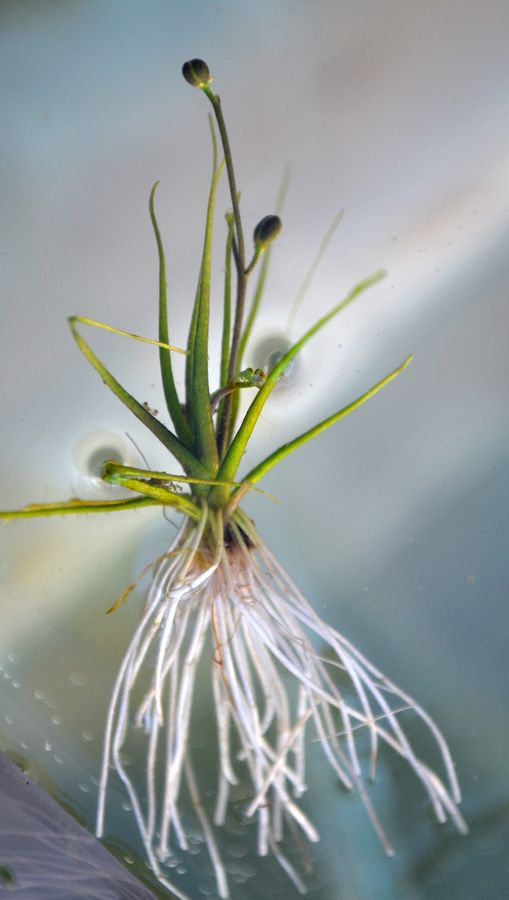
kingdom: Plantae
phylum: Tracheophyta
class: Magnoliopsida
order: Brassicales
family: Brassicaceae
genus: Subularia
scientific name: Subularia aquatica
